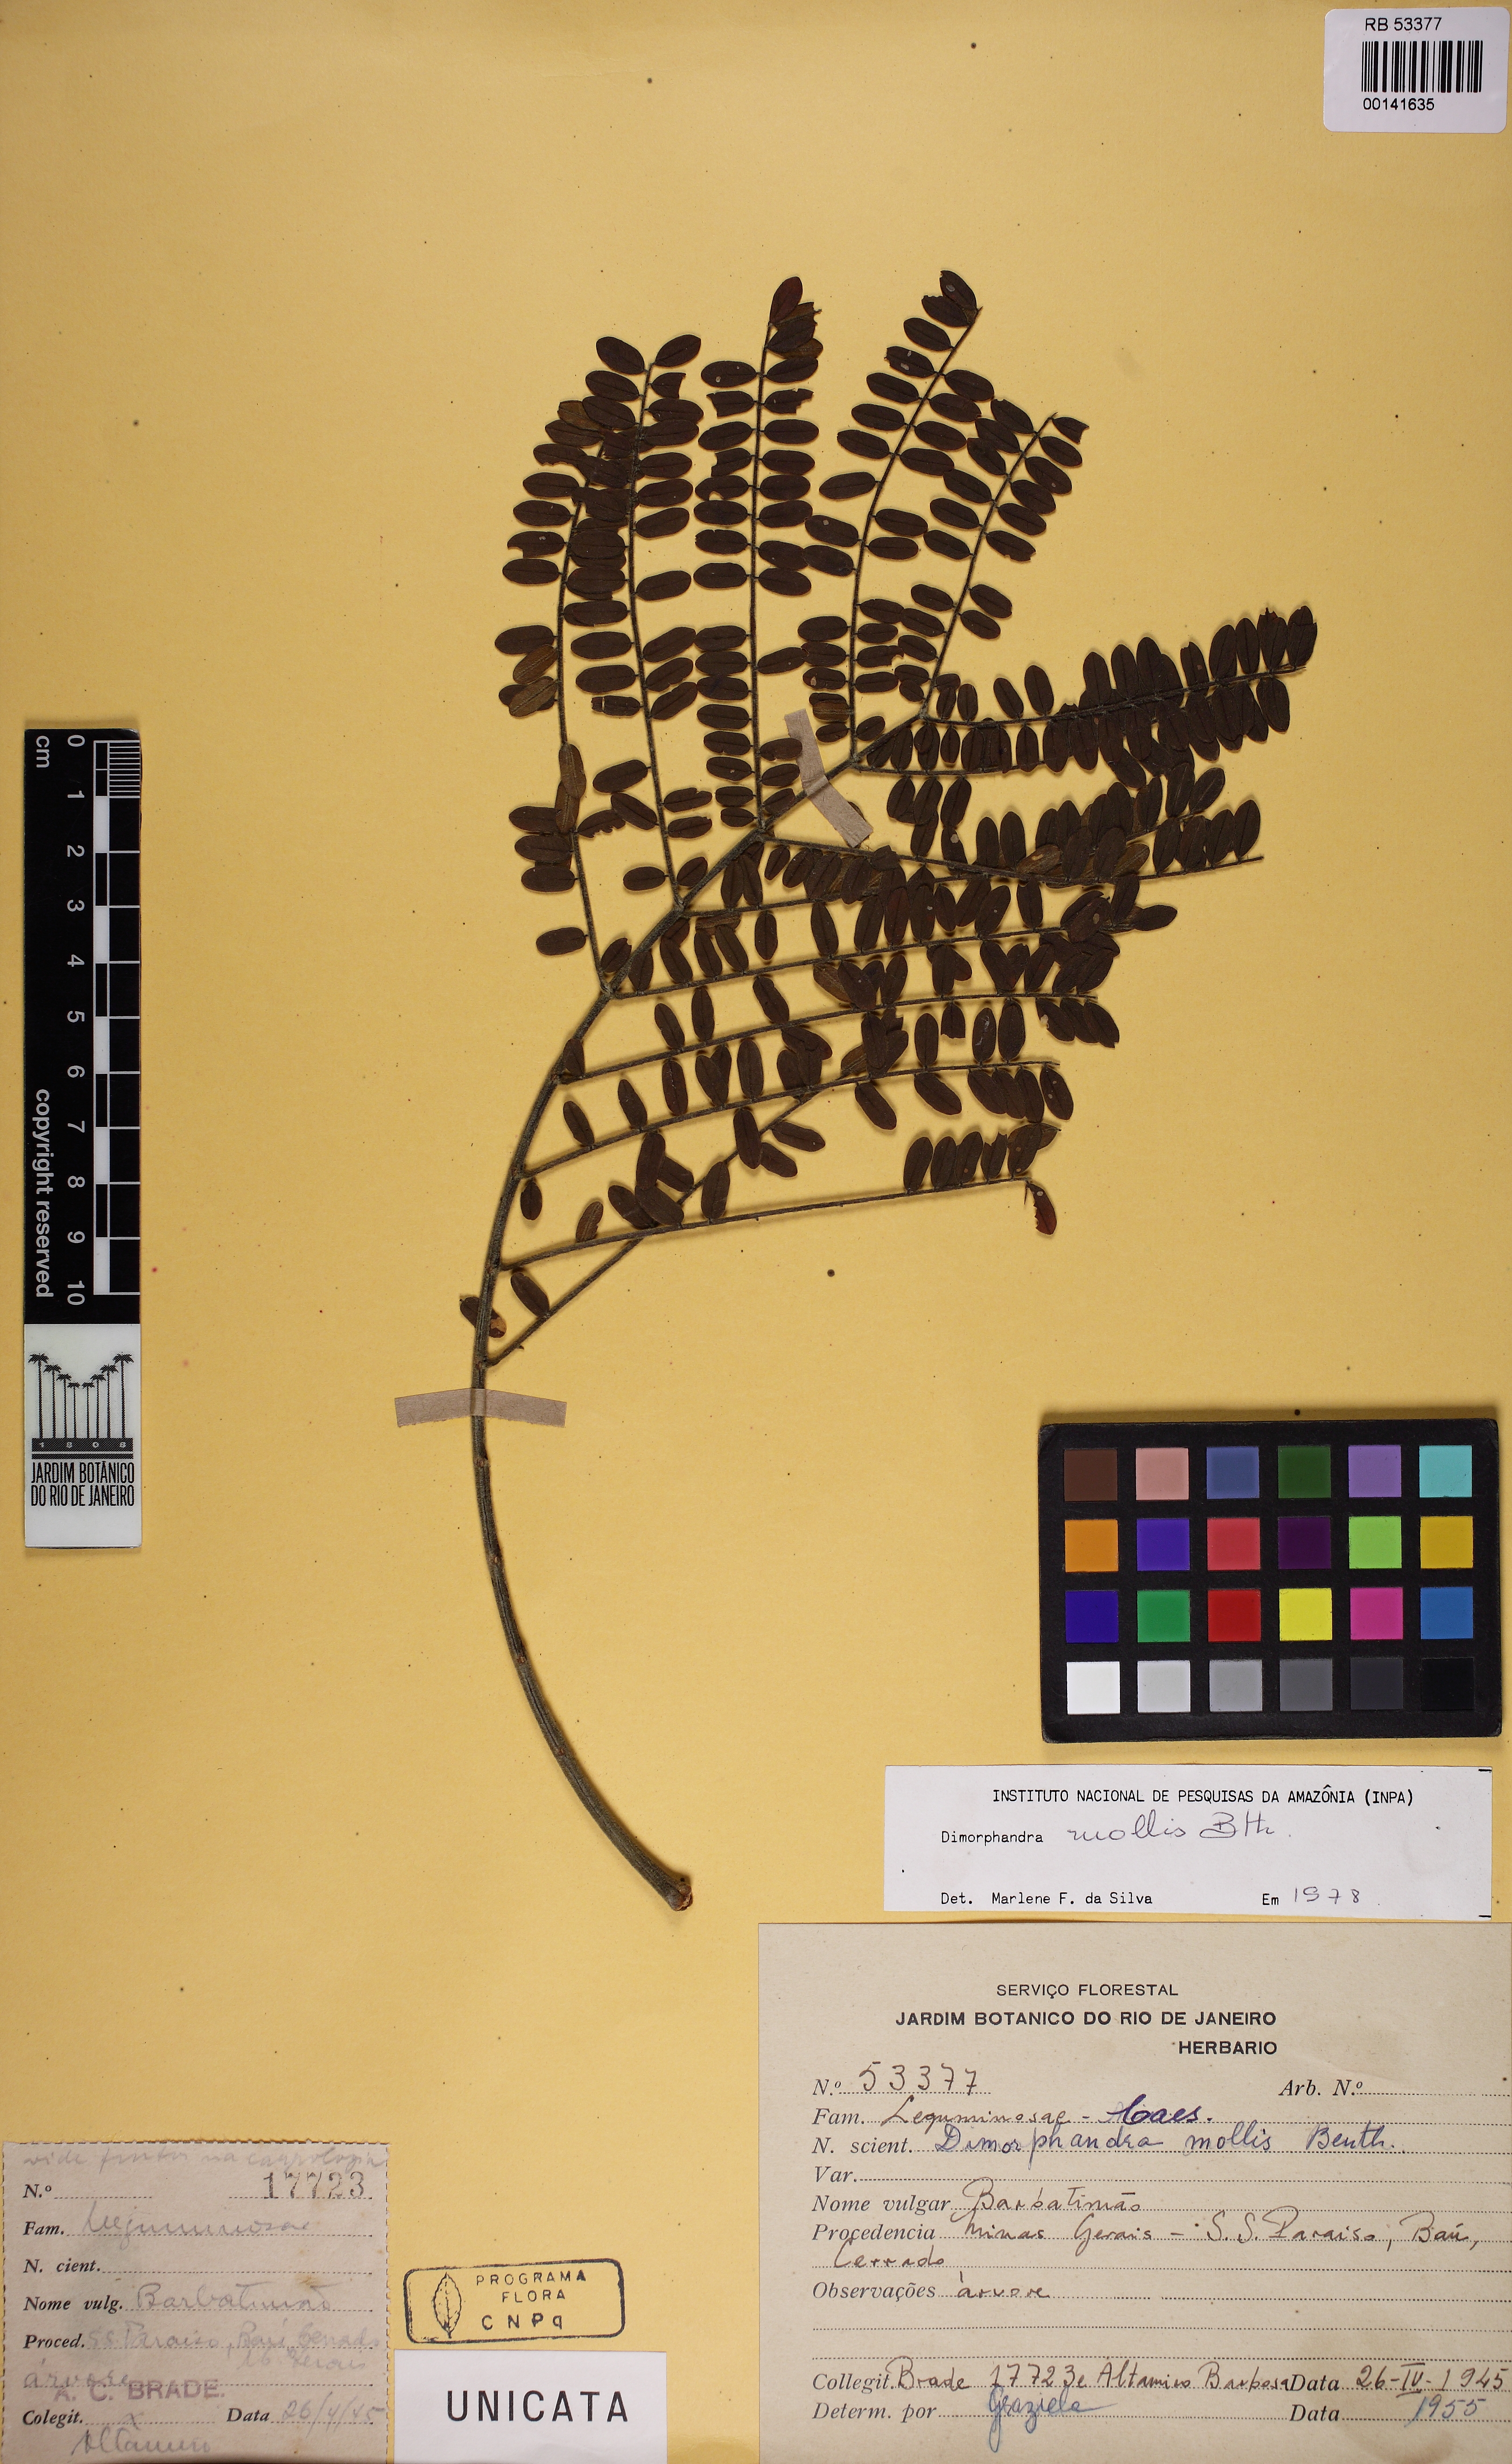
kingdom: Plantae
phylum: Tracheophyta
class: Magnoliopsida
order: Fabales
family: Fabaceae
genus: Dimorphandra
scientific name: Dimorphandra mollis
